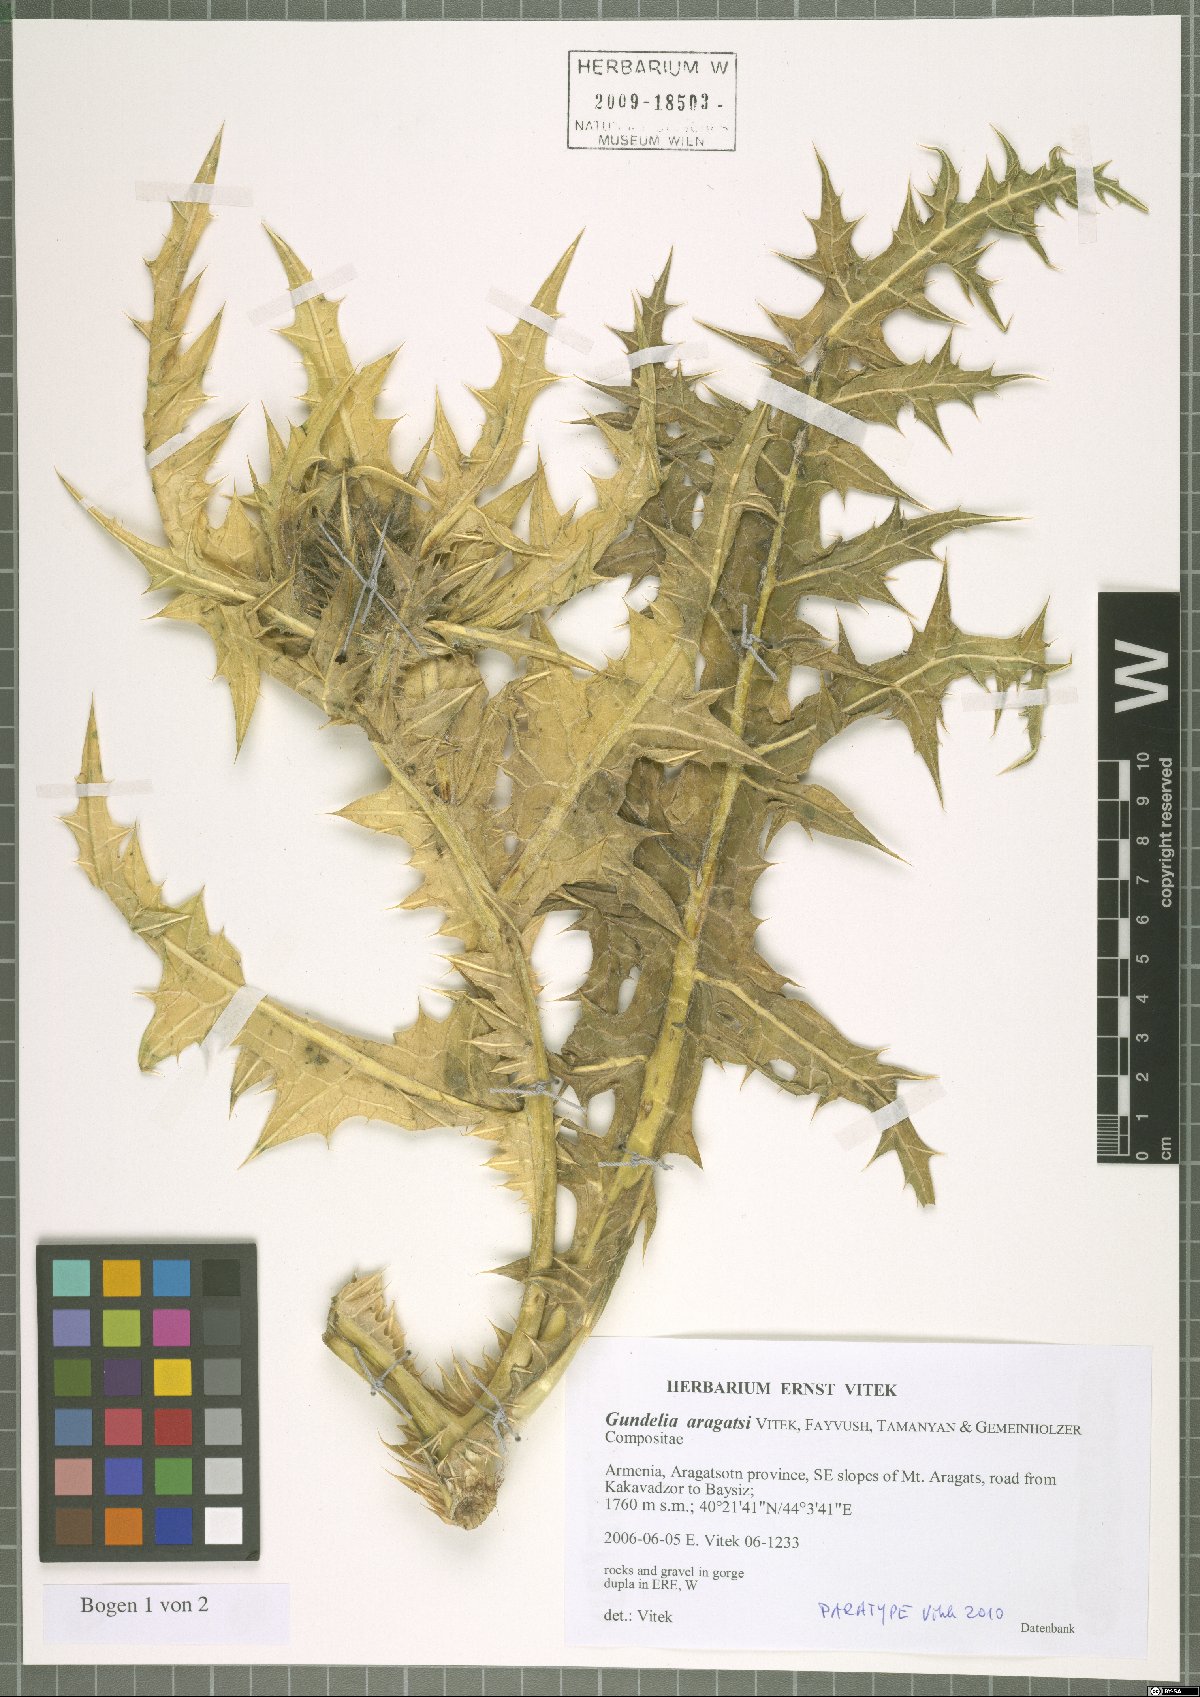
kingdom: Plantae
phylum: Tracheophyta
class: Magnoliopsida
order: Asterales
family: Asteraceae
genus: Gundelia
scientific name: Gundelia aragatsi
